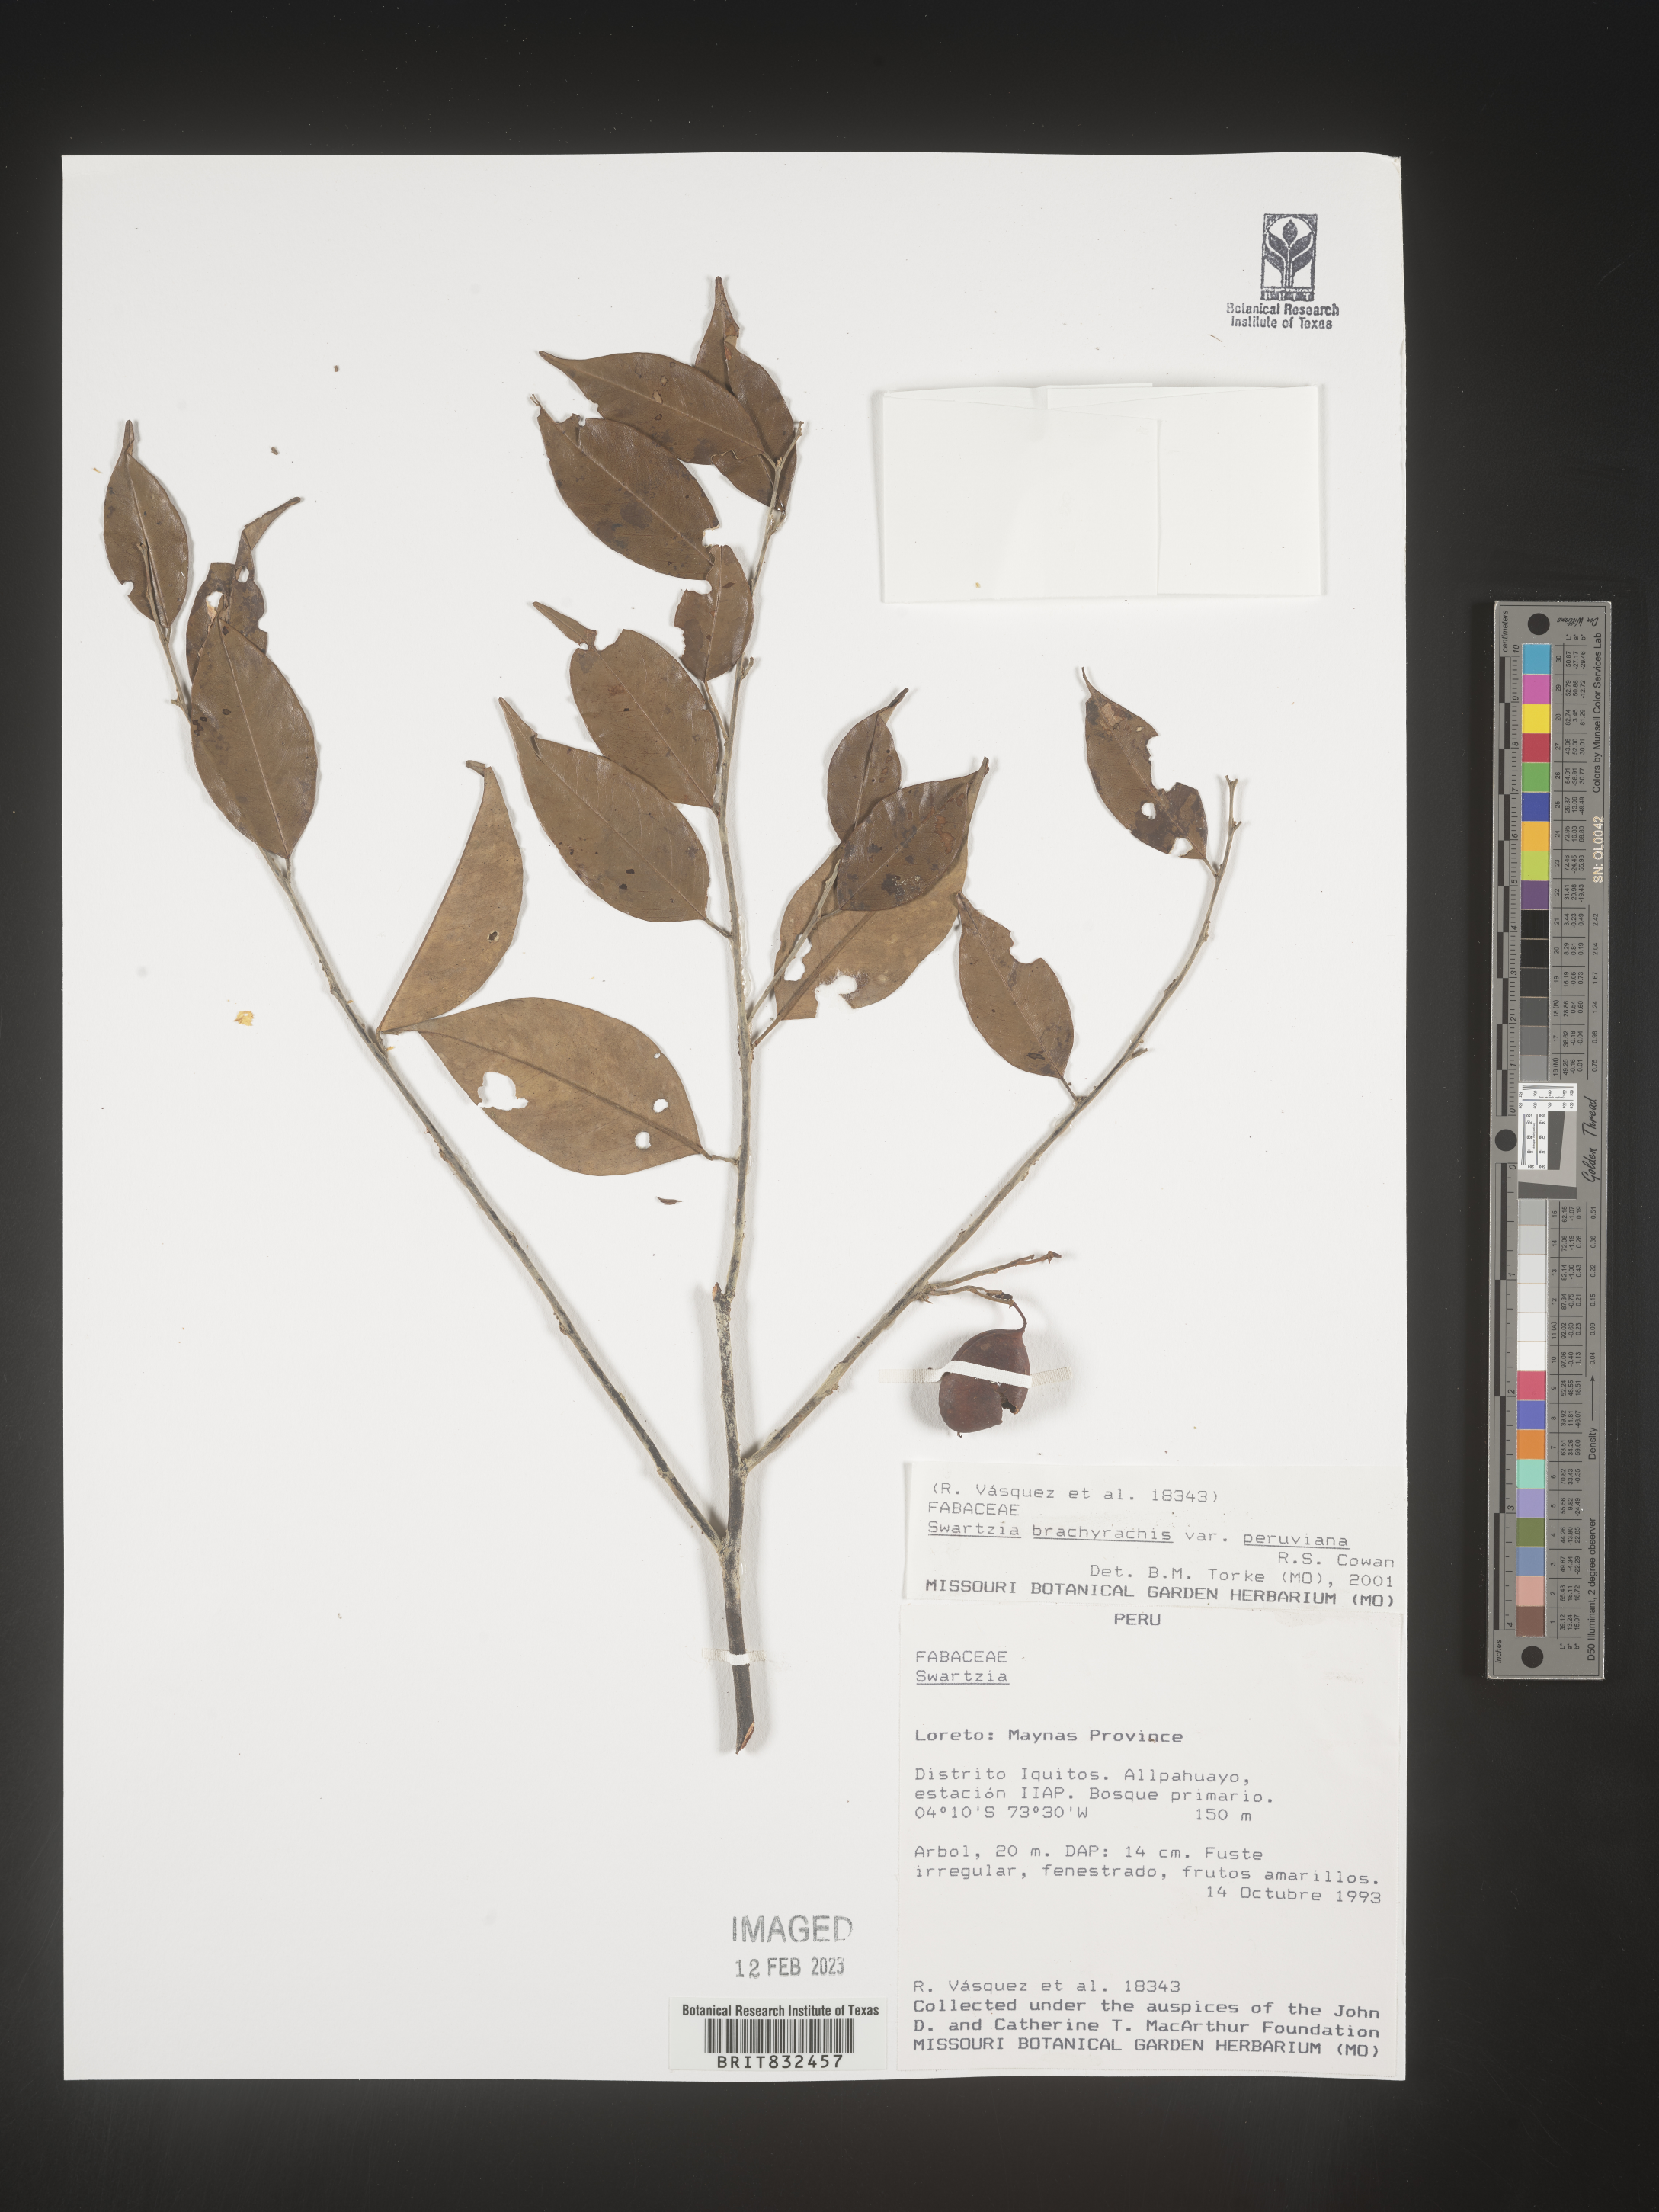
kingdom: Plantae
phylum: Tracheophyta
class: Magnoliopsida
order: Fabales
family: Fabaceae
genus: Swartzia
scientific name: Swartzia
